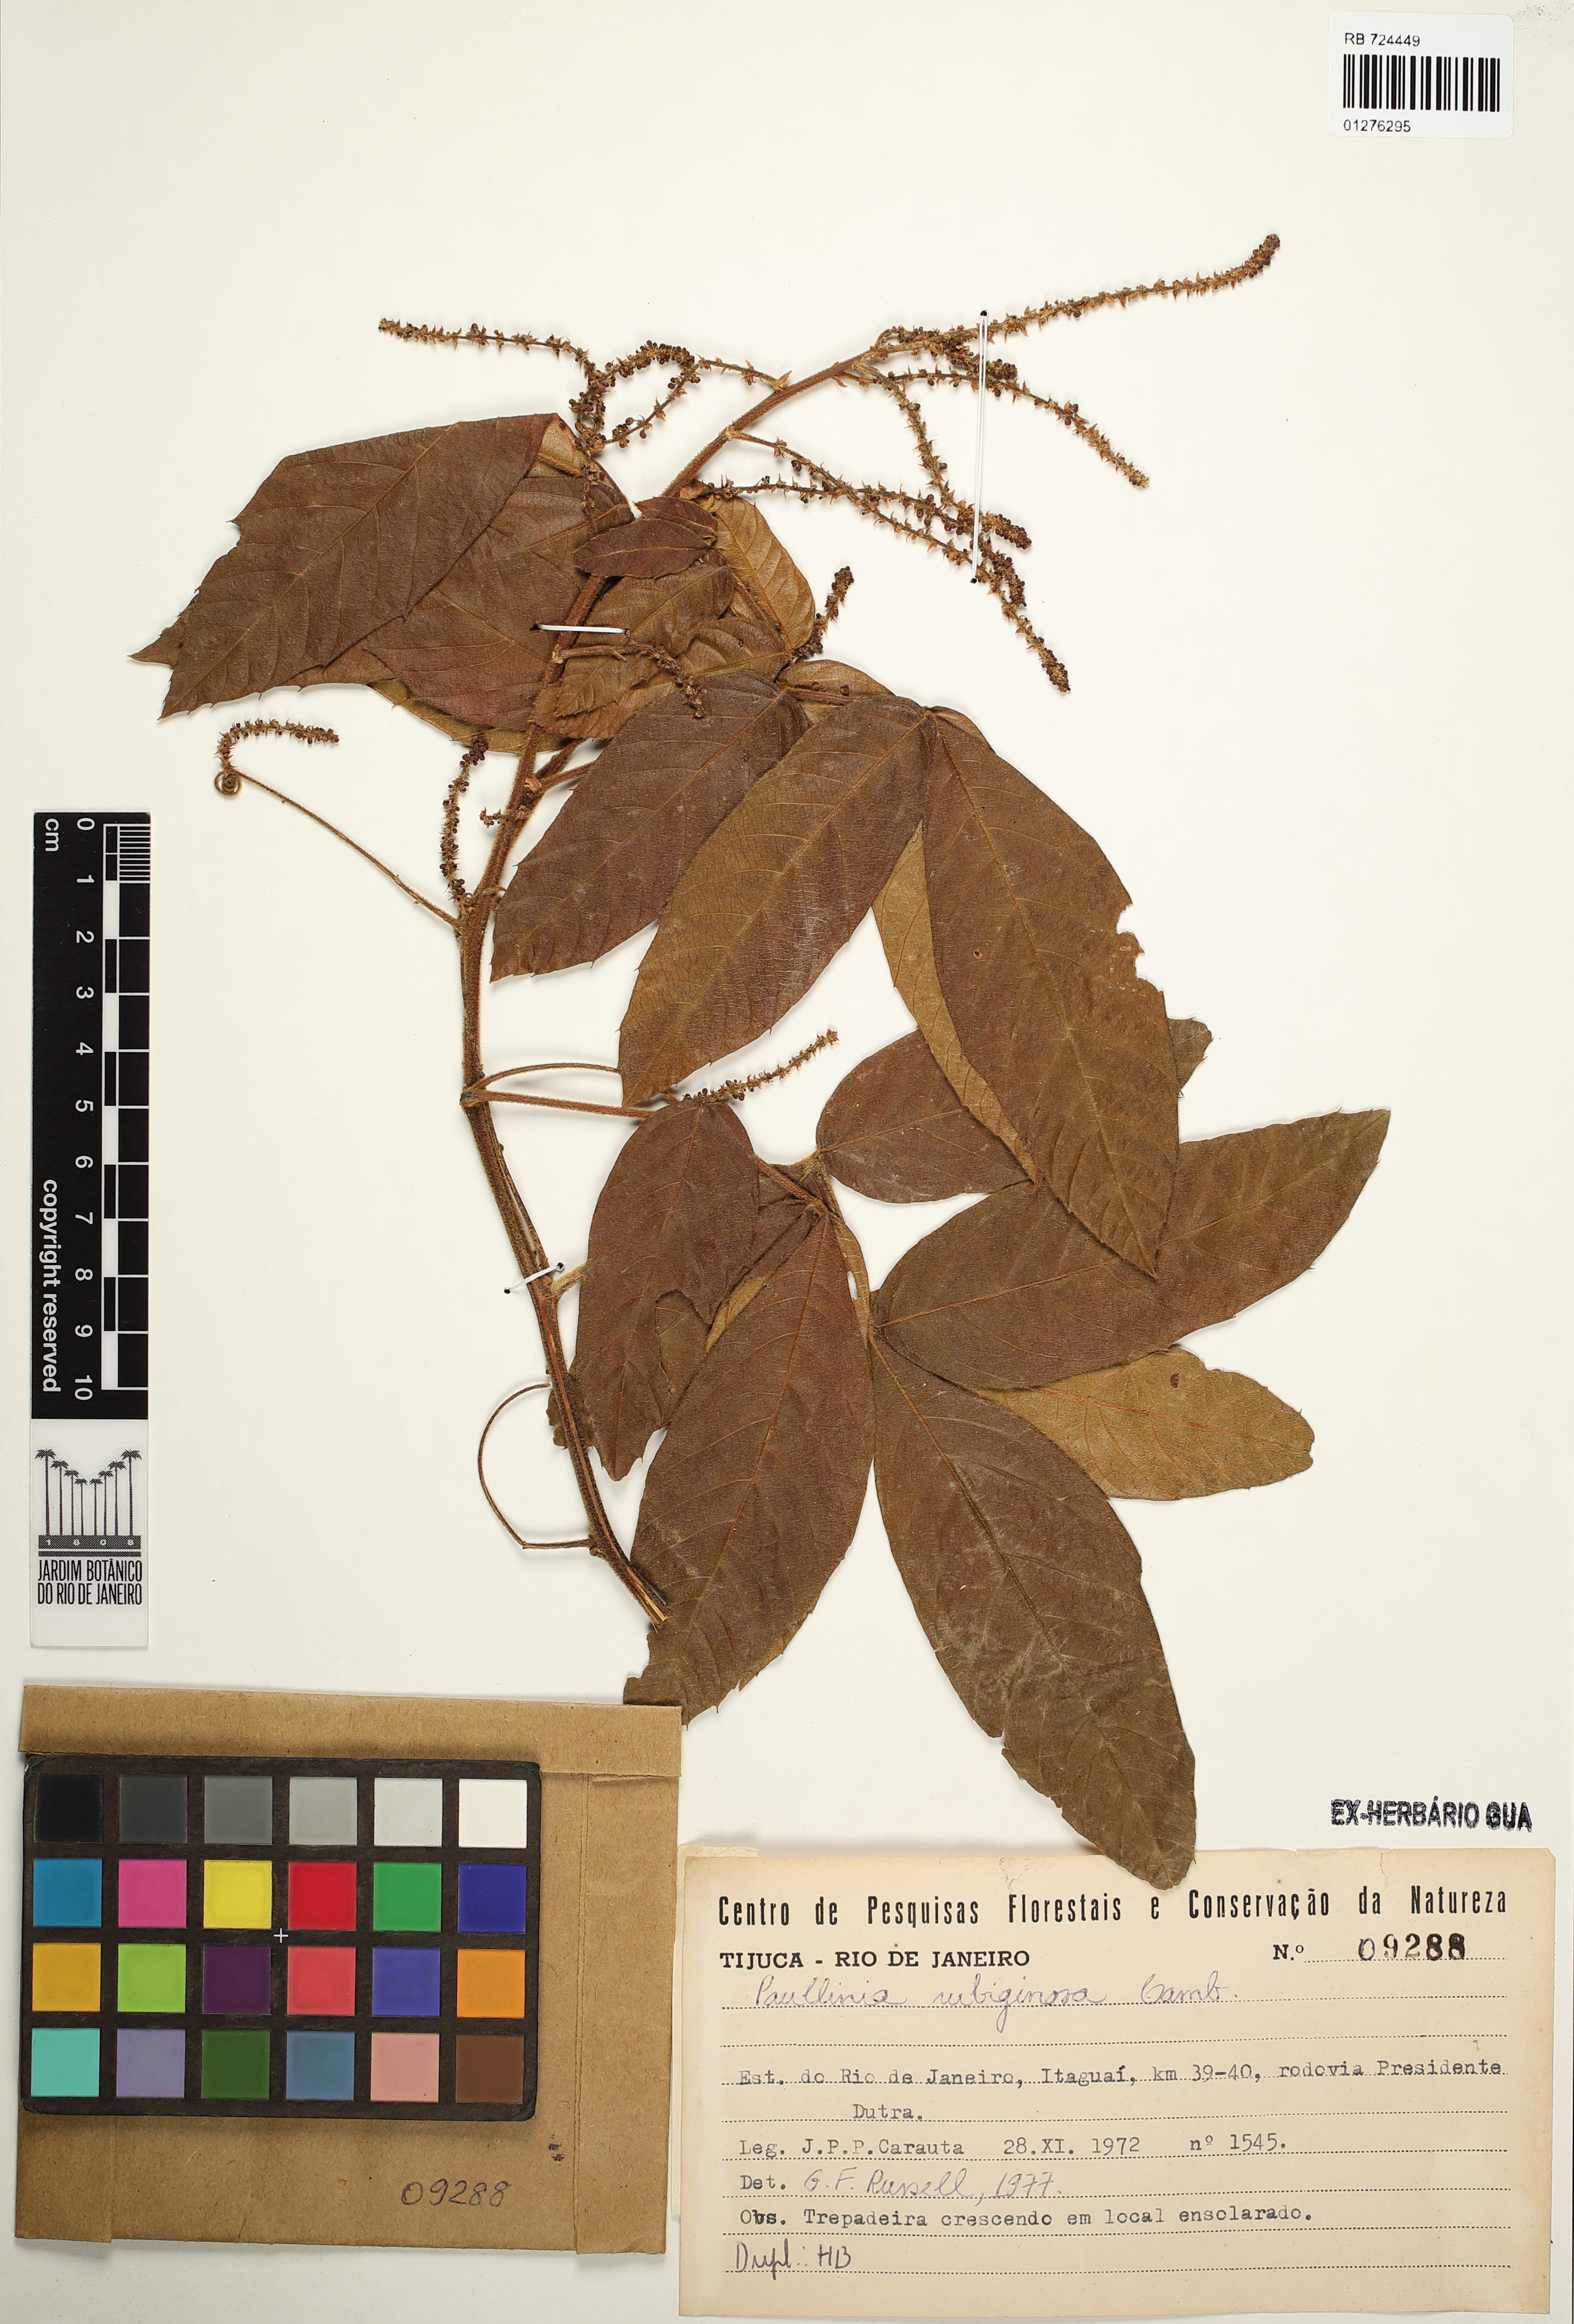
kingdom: Plantae
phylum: Tracheophyta
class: Magnoliopsida
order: Sapindales
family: Sapindaceae
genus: Paullinia
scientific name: Paullinia rubiginosa
